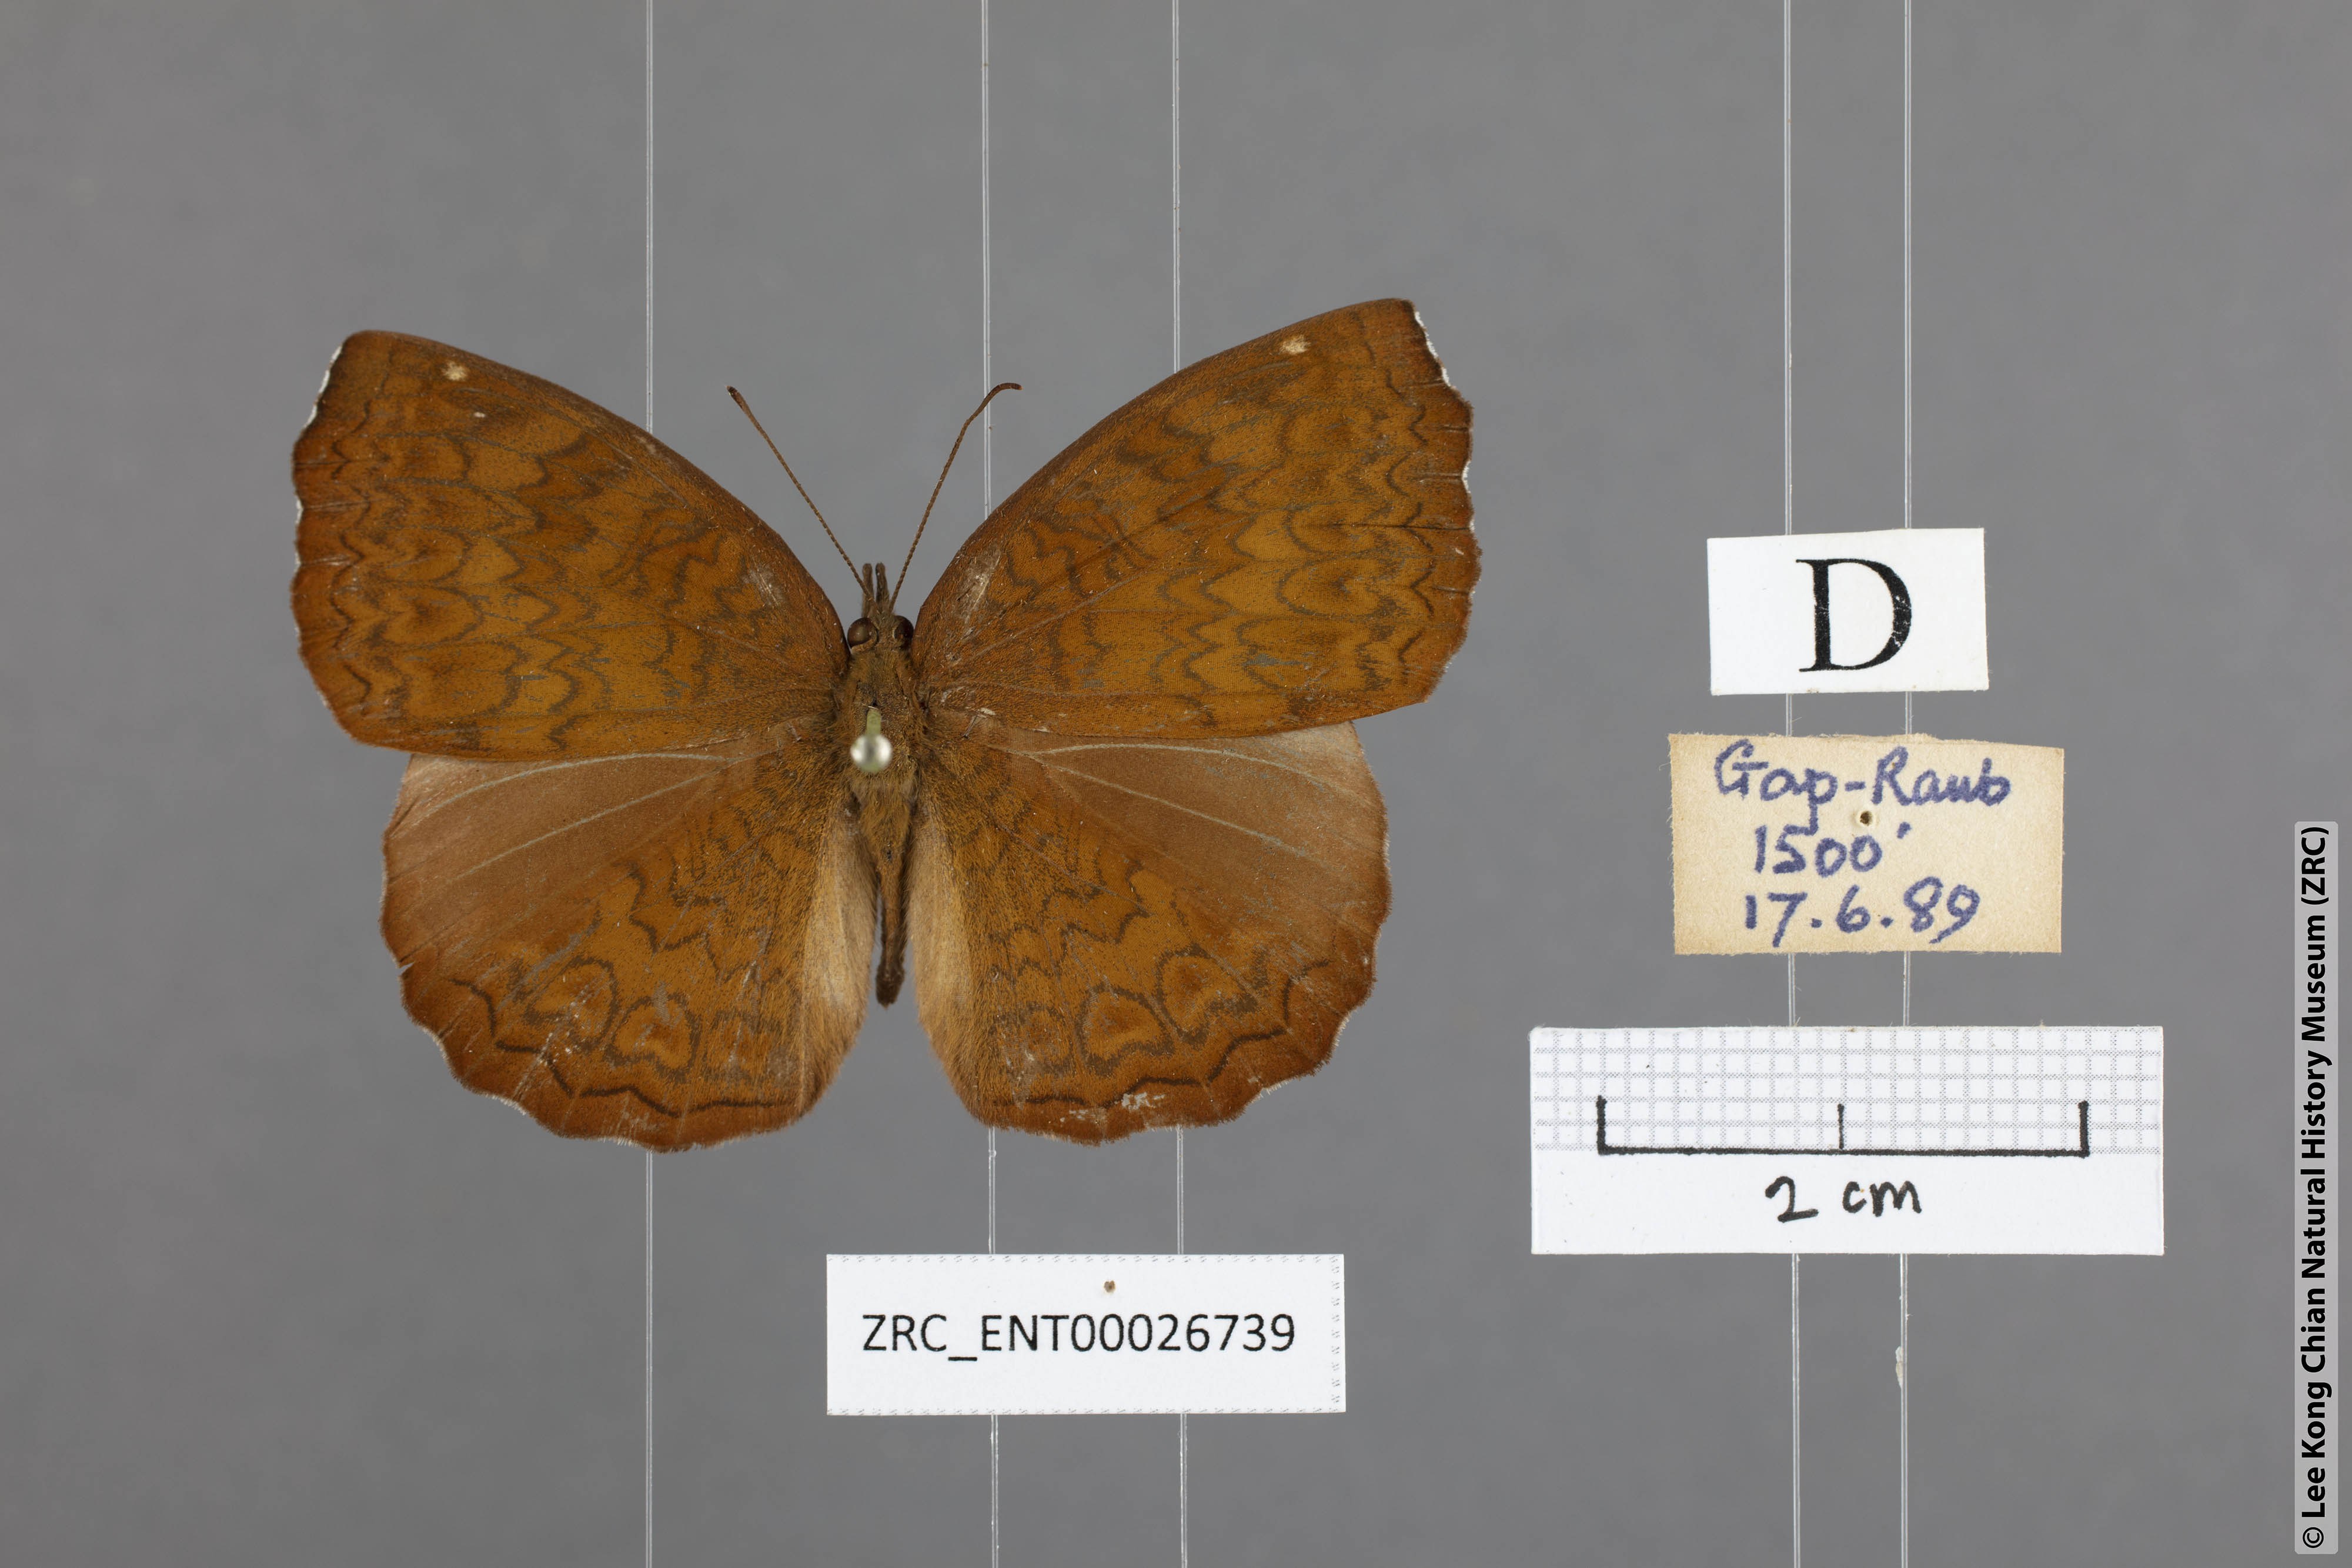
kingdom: Animalia
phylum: Arthropoda
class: Insecta
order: Lepidoptera
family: Nymphalidae
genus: Ariadne
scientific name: Ariadne merione
